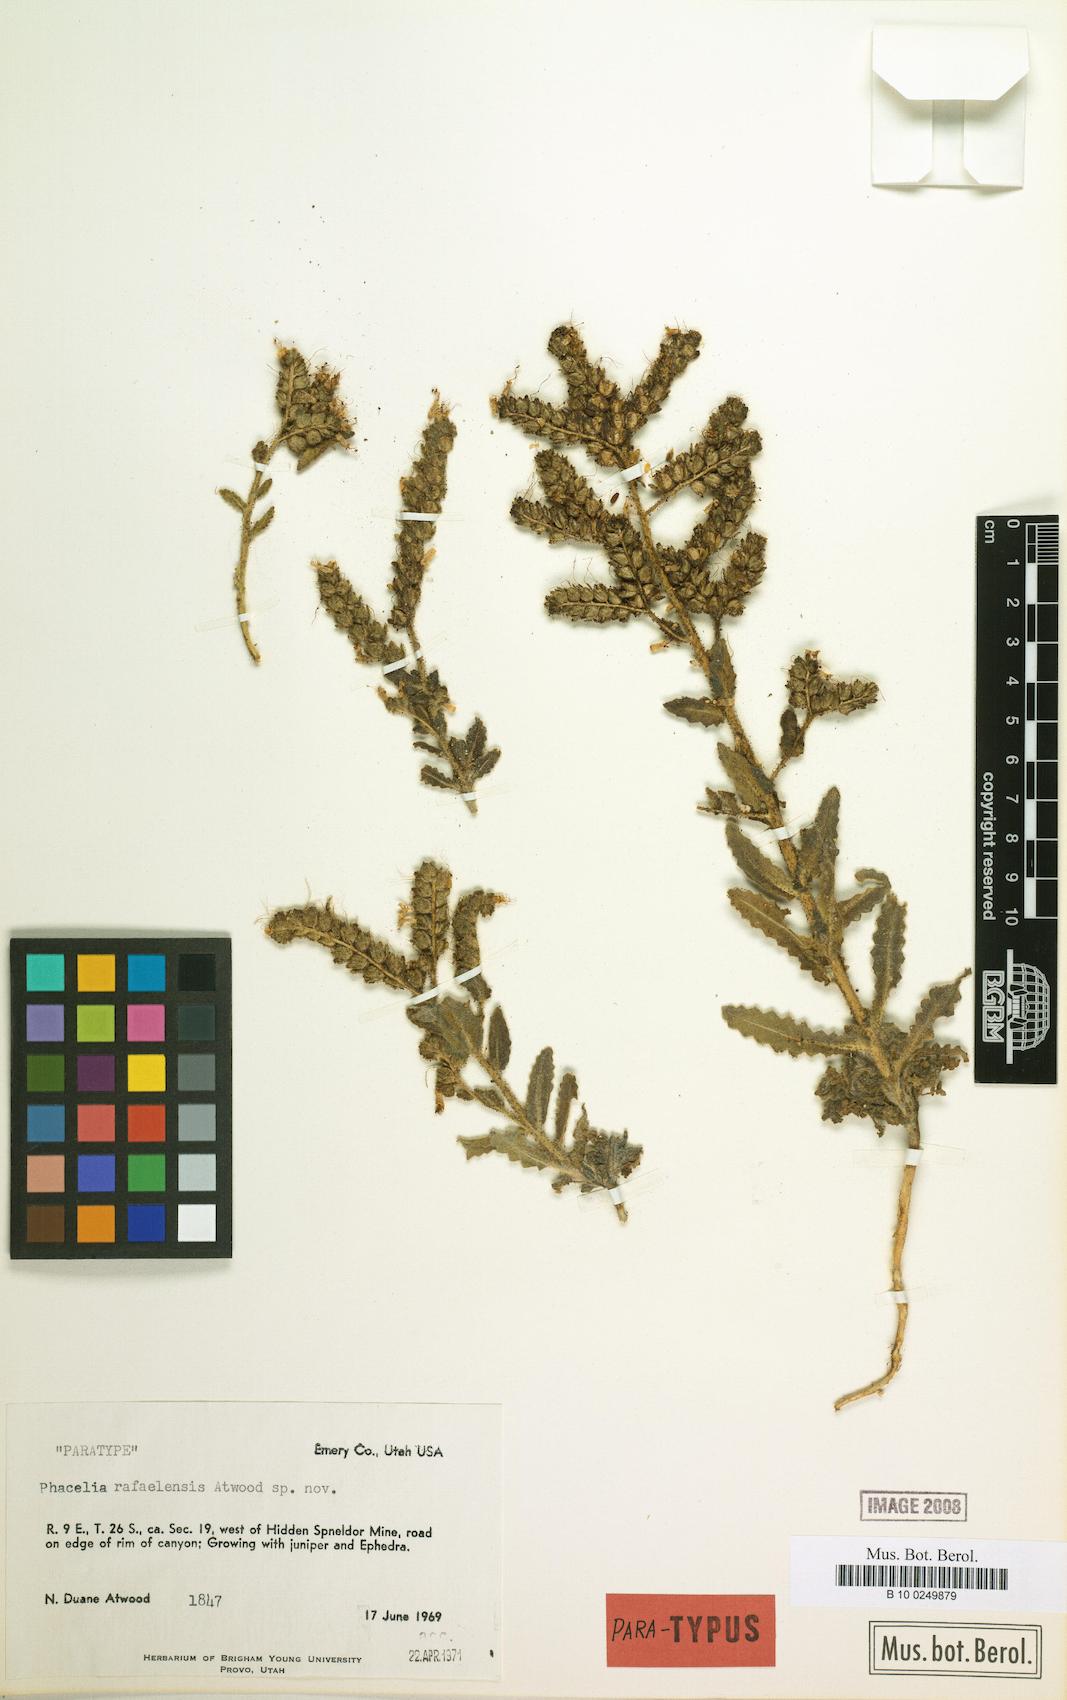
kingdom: Plantae
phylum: Tracheophyta
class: Magnoliopsida
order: Boraginales
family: Hydrophyllaceae
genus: Phacelia
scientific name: Phacelia rafaelensis
